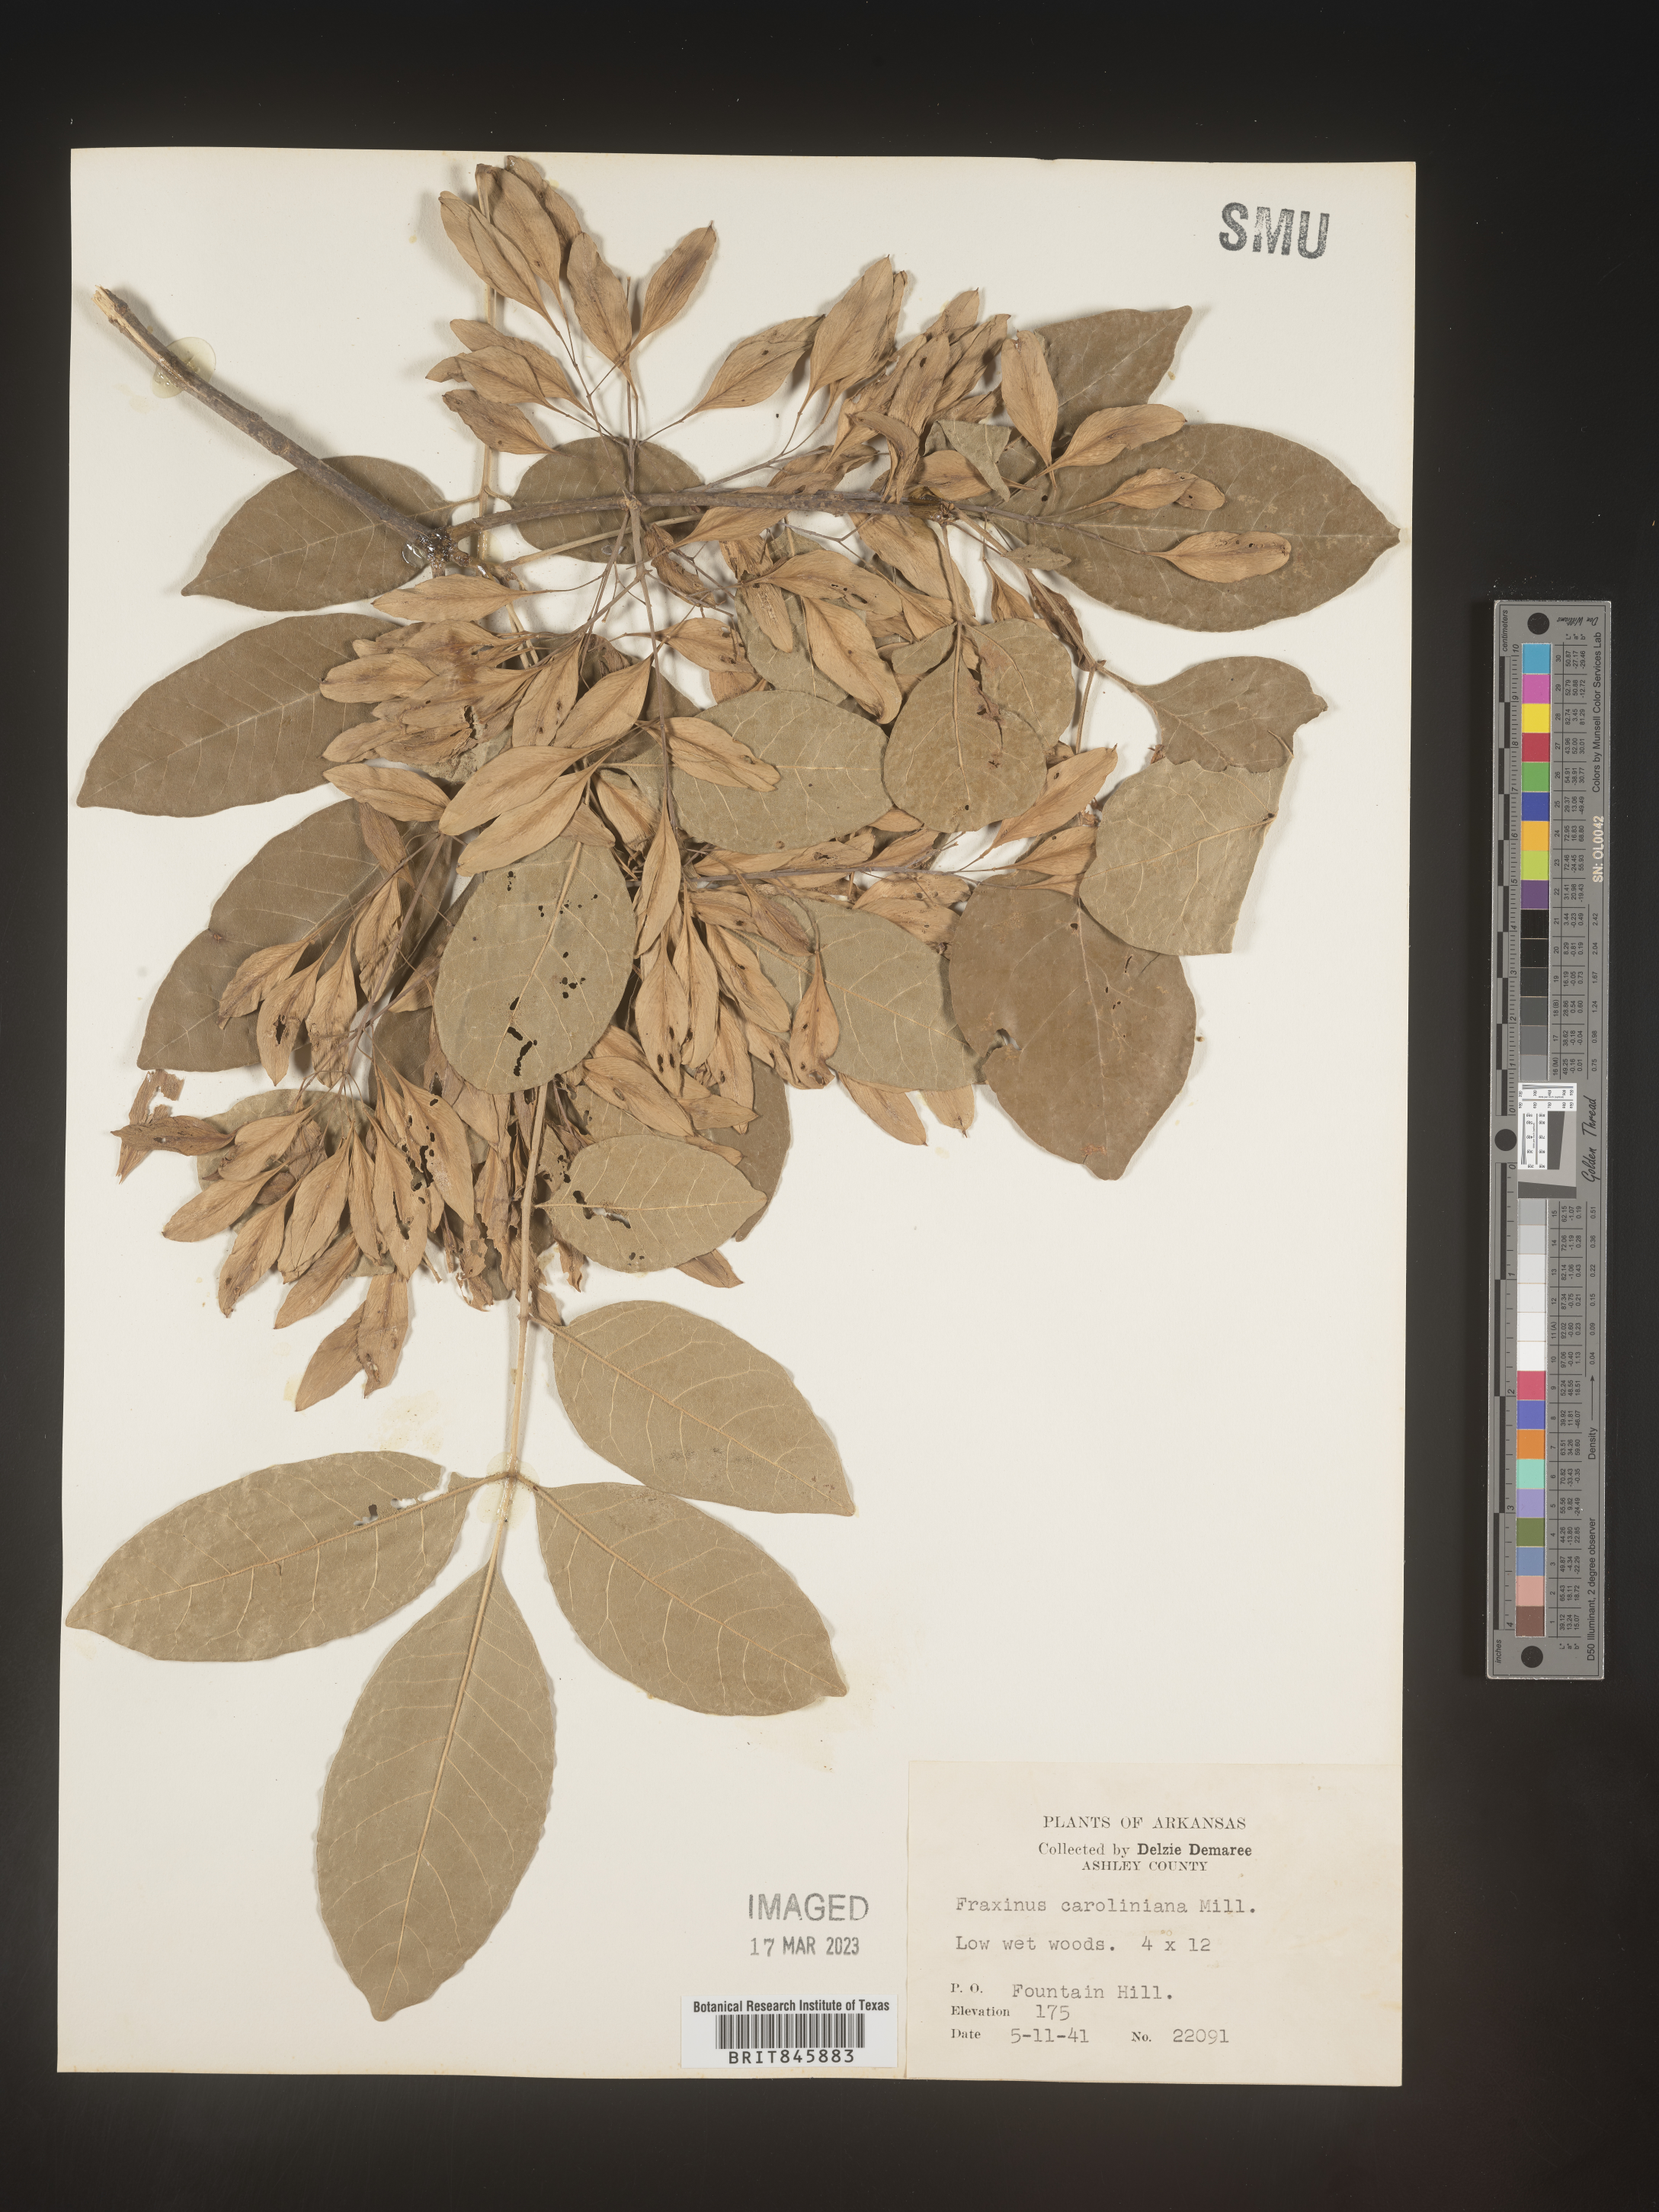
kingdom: Plantae
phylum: Tracheophyta
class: Magnoliopsida
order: Lamiales
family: Oleaceae
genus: Fraxinus
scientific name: Fraxinus caroliniana
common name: Carolina ash
